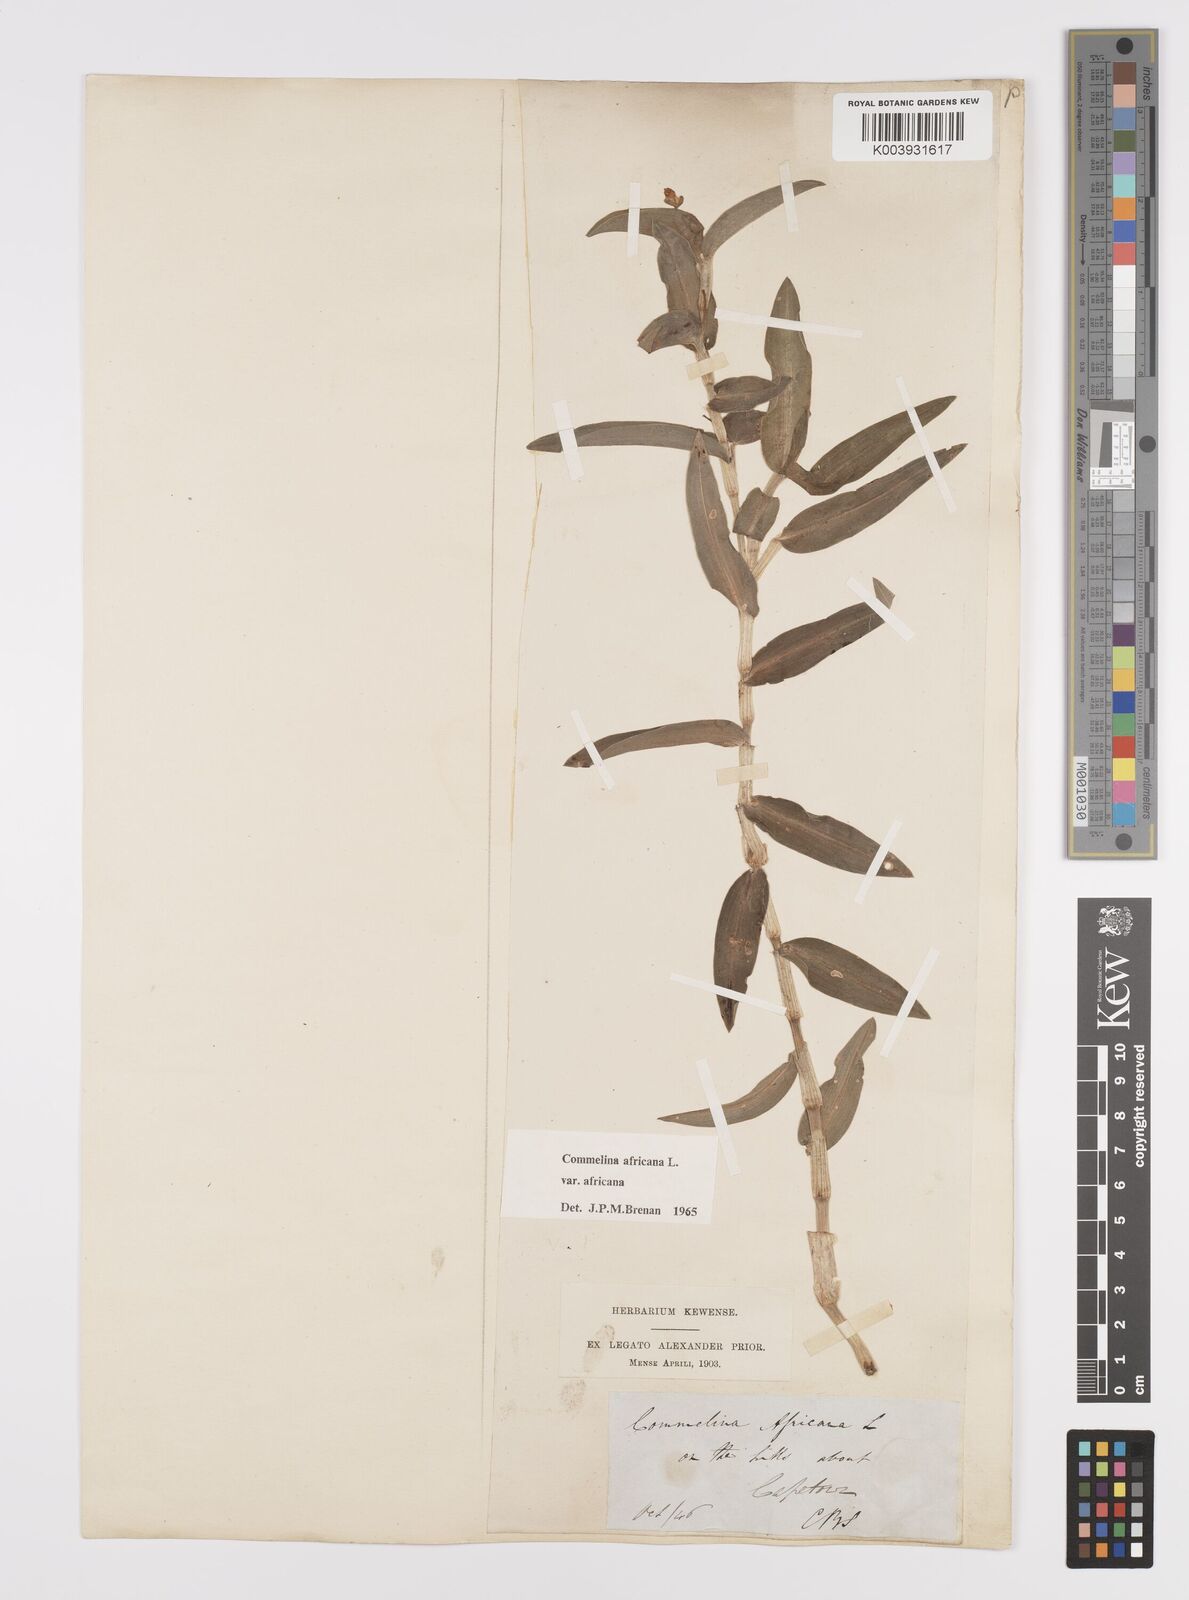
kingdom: Plantae
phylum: Tracheophyta
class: Liliopsida
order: Commelinales
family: Commelinaceae
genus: Commelina
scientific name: Commelina africana
